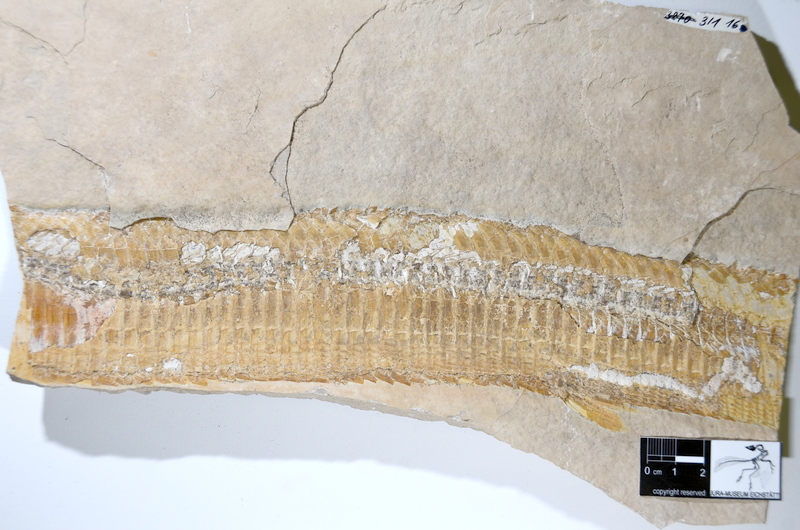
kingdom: Animalia
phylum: Chordata
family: Aspidorhynchidae
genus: Aspidorhynchus
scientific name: Aspidorhynchus acutirostris
